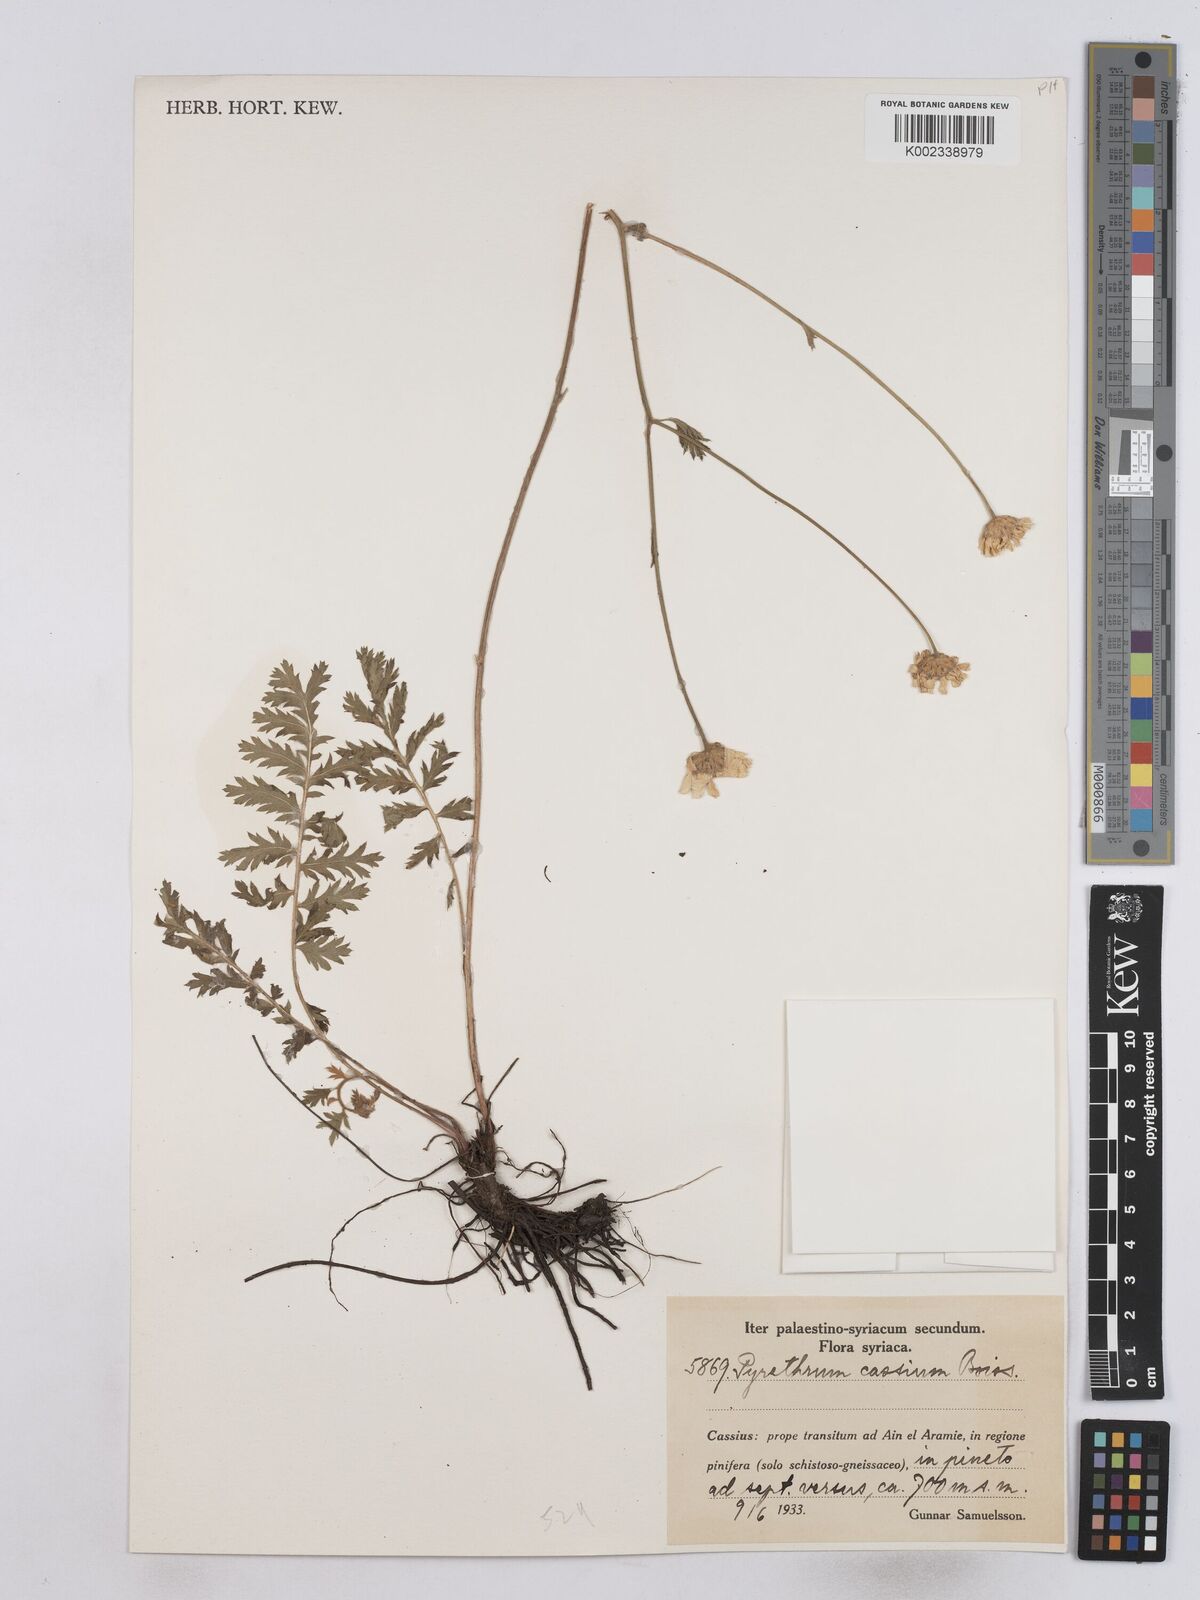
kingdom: Plantae
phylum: Tracheophyta
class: Magnoliopsida
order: Asterales
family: Asteraceae
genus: Tanacetum
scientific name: Tanacetum poteriifolium
